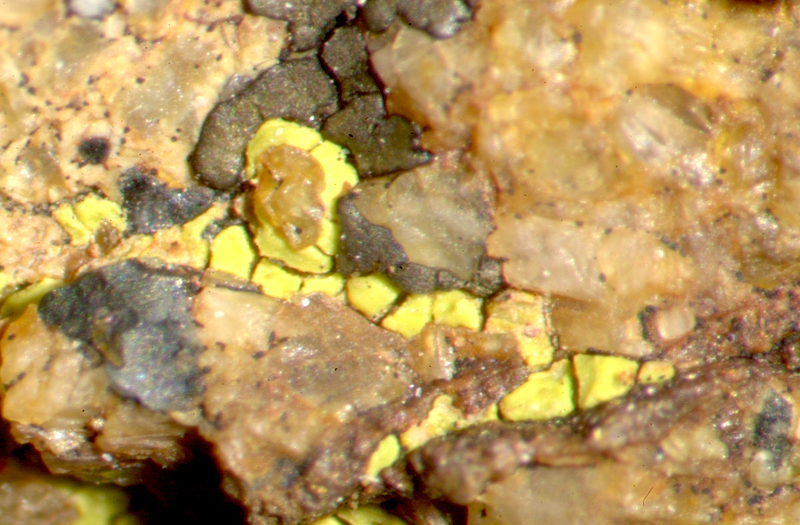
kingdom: Fungi
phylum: Ascomycota
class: Lecanoromycetes
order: Teloschistales
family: Teloschistaceae
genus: Caloplaca
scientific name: Caloplaca haematodes
